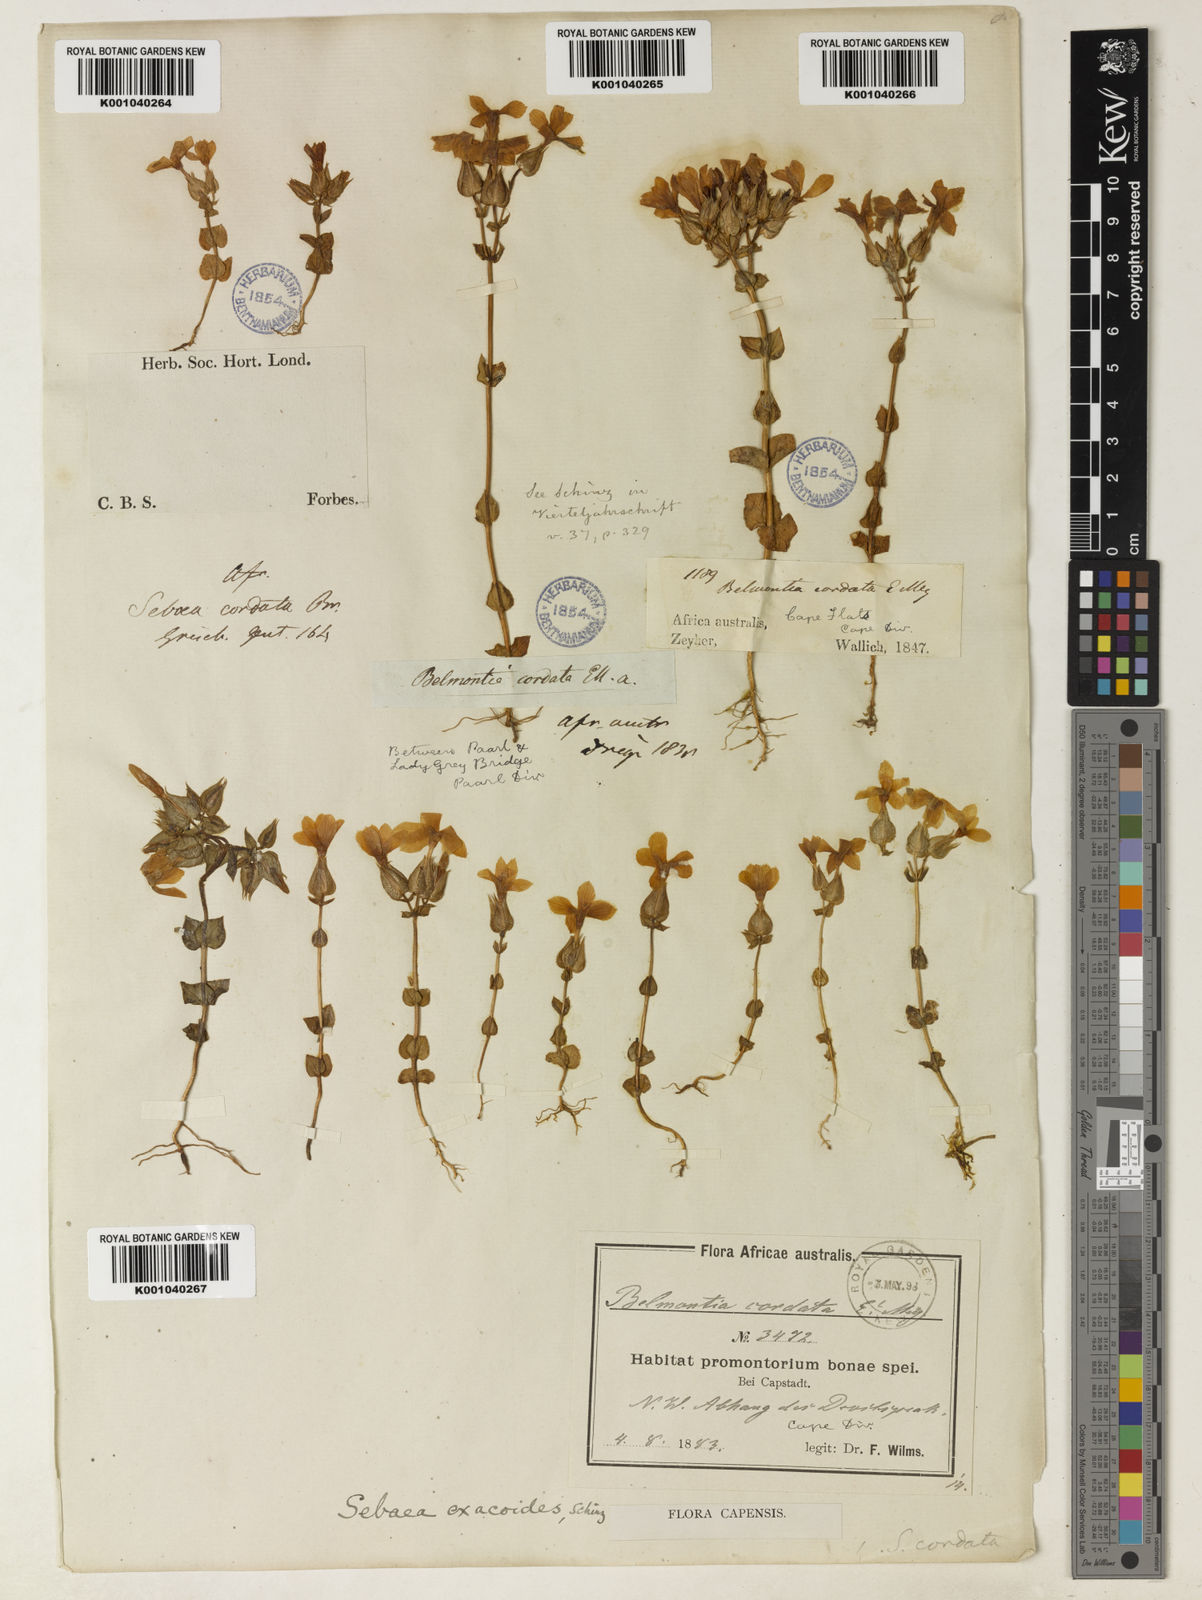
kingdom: Plantae
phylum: Tracheophyta
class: Magnoliopsida
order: Gentianales
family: Gentianaceae
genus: Sebaea
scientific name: Sebaea exacoides
